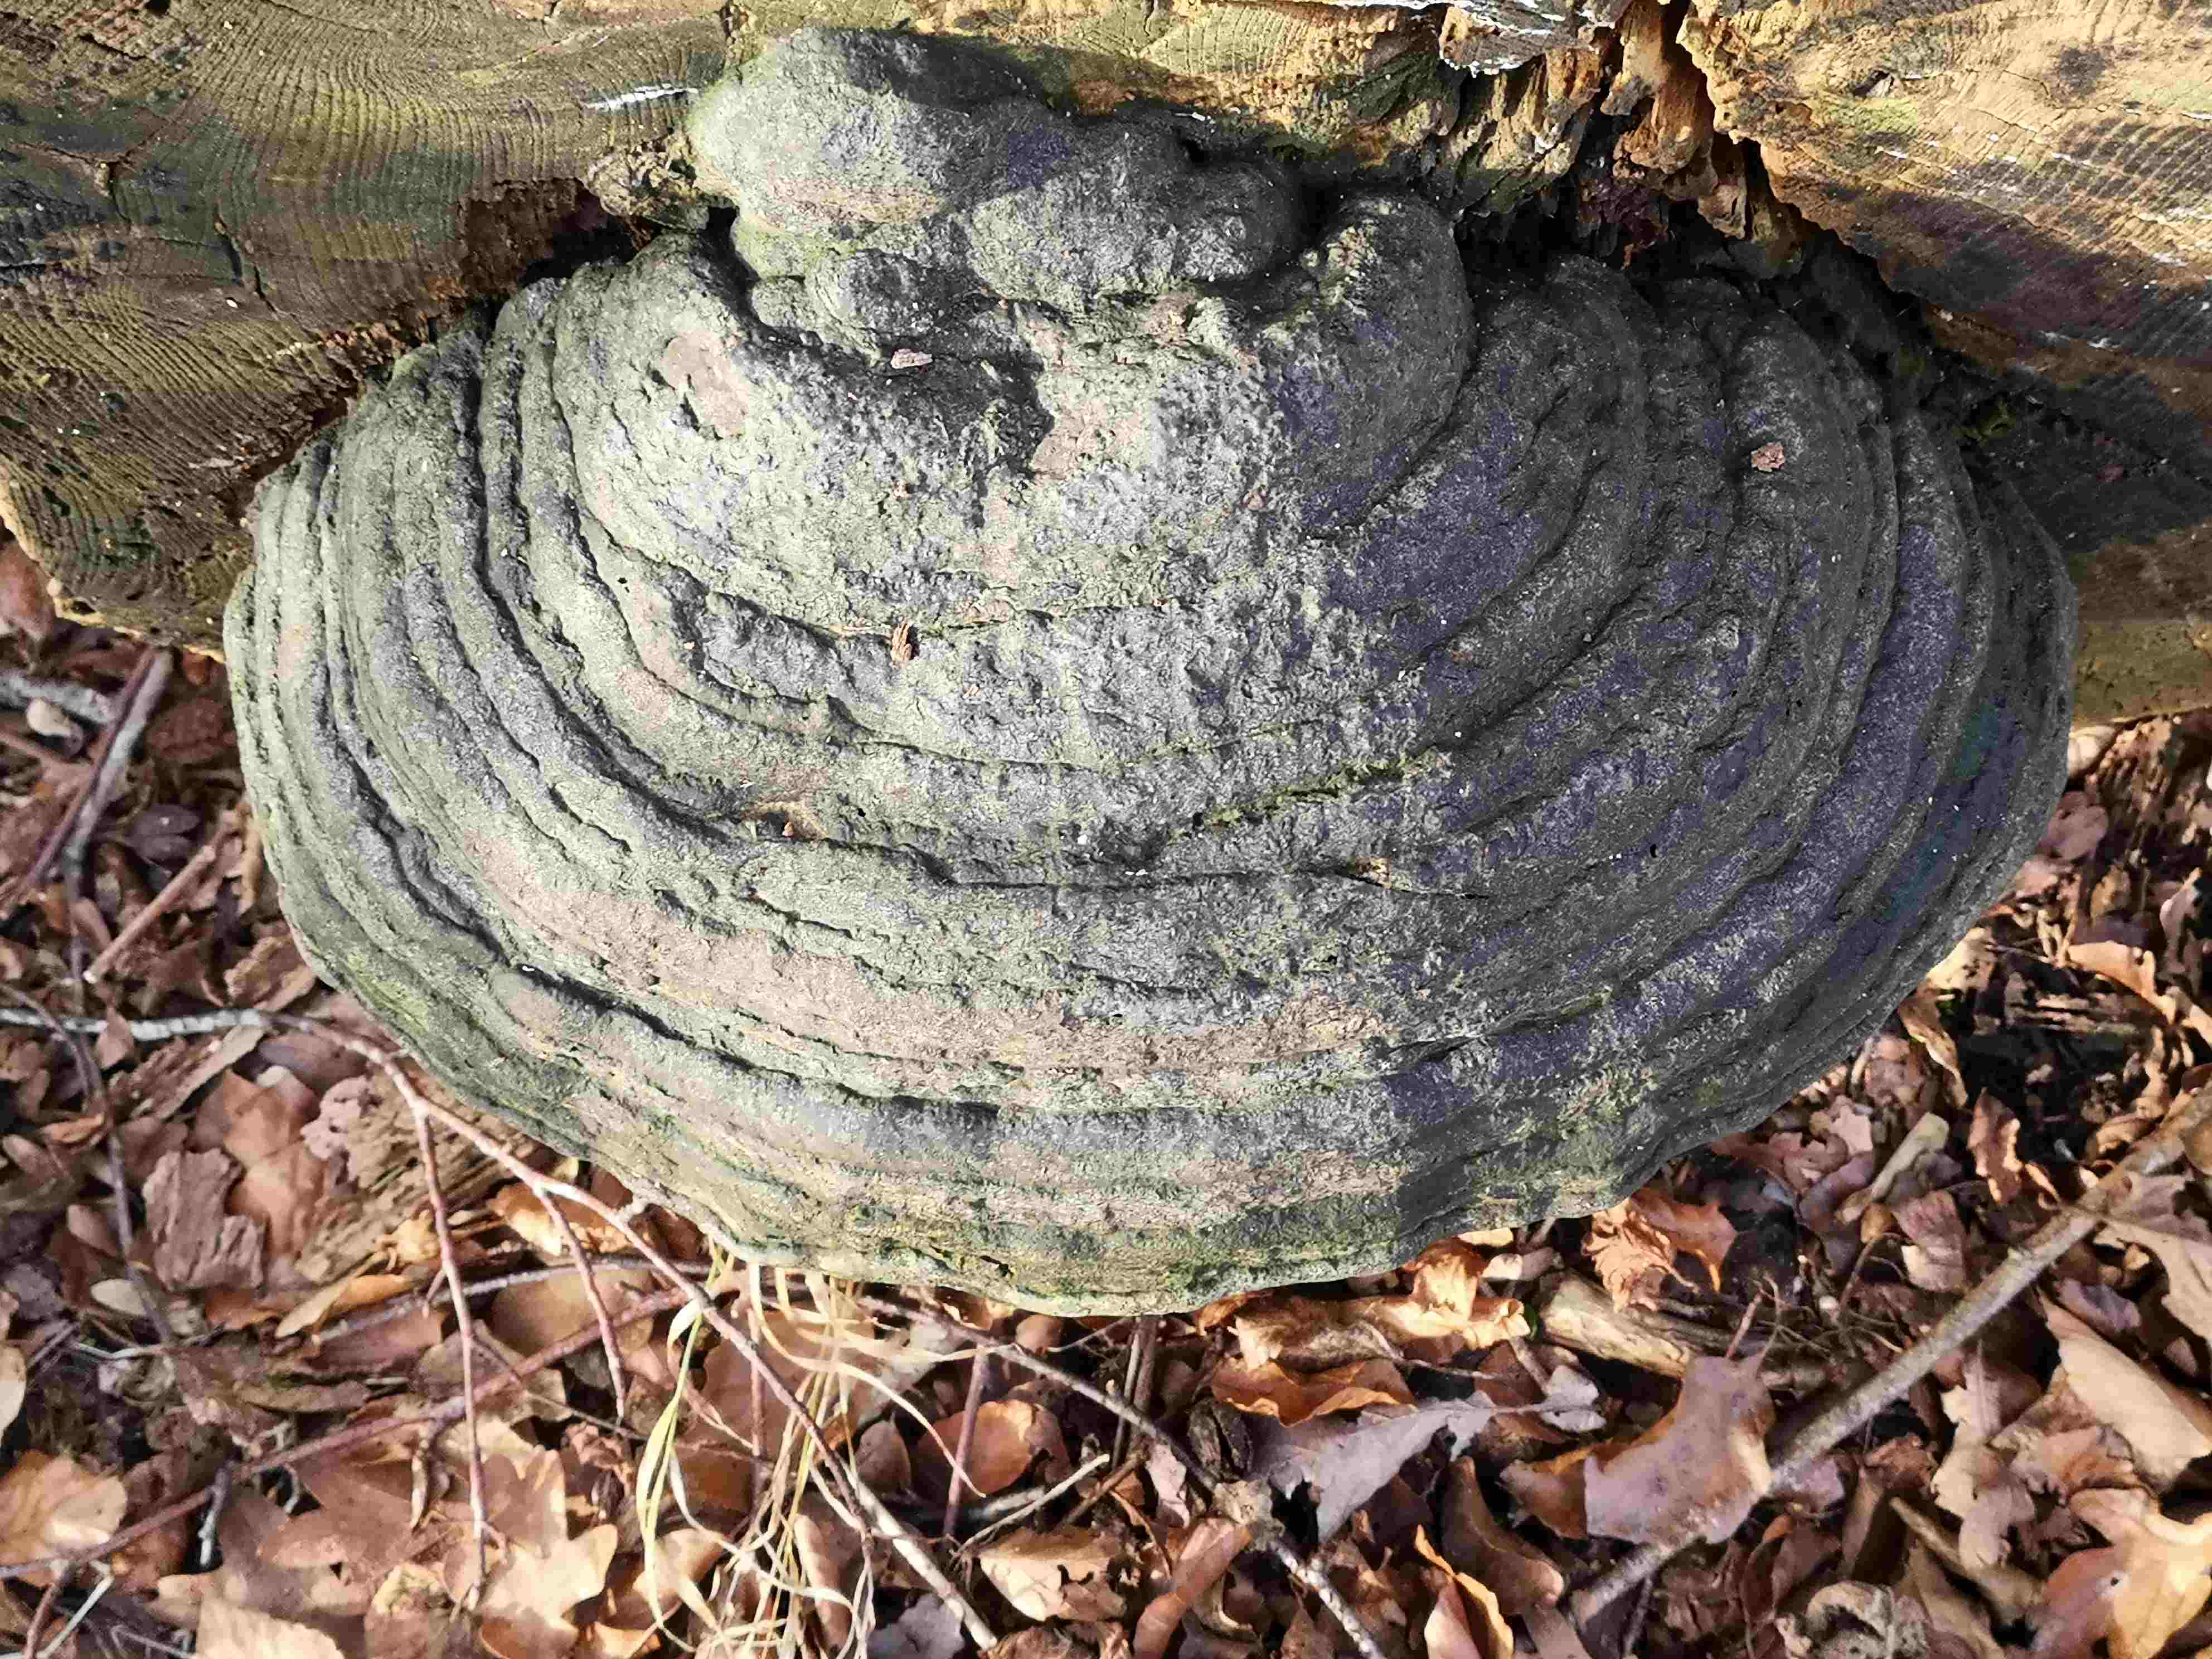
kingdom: Fungi
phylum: Basidiomycota
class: Agaricomycetes
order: Polyporales
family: Polyporaceae
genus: Fomes
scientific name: Fomes fomentarius
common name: tøndersvamp
